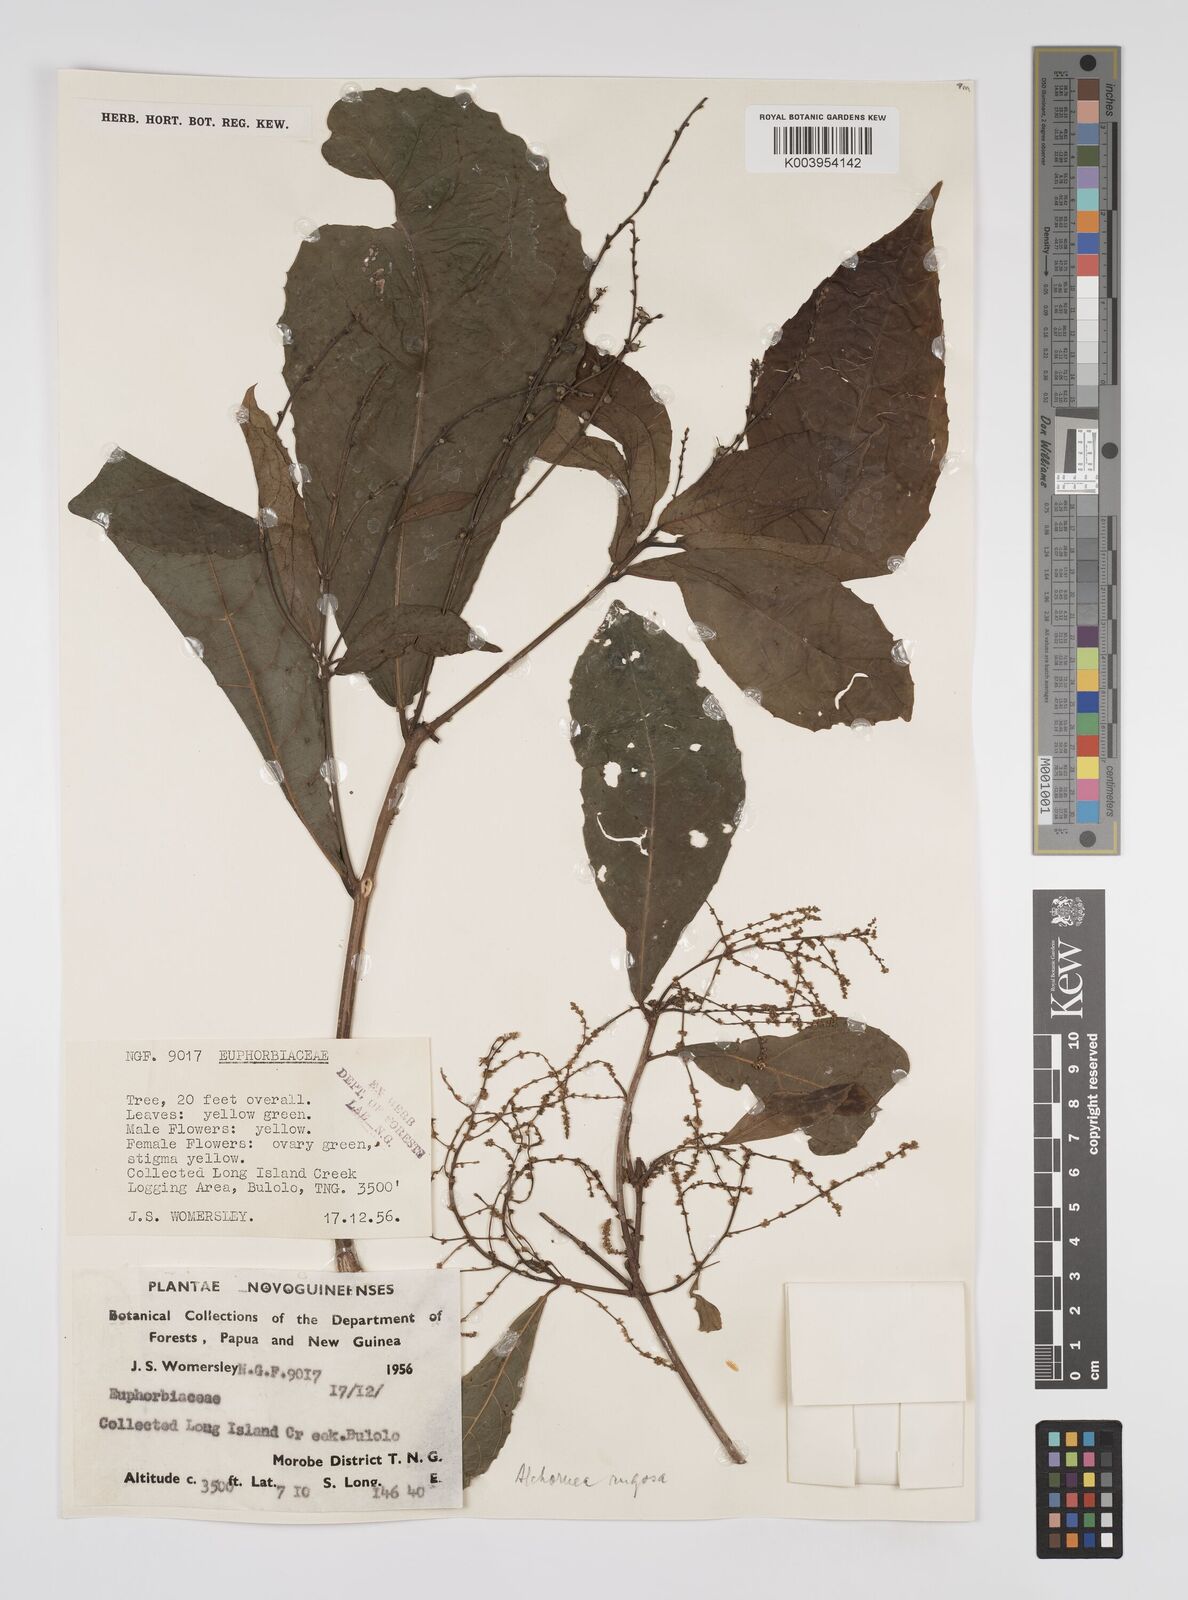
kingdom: Plantae
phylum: Tracheophyta
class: Magnoliopsida
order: Malpighiales
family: Euphorbiaceae
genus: Alchornea
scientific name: Alchornea rugosa
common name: Alchorntree
